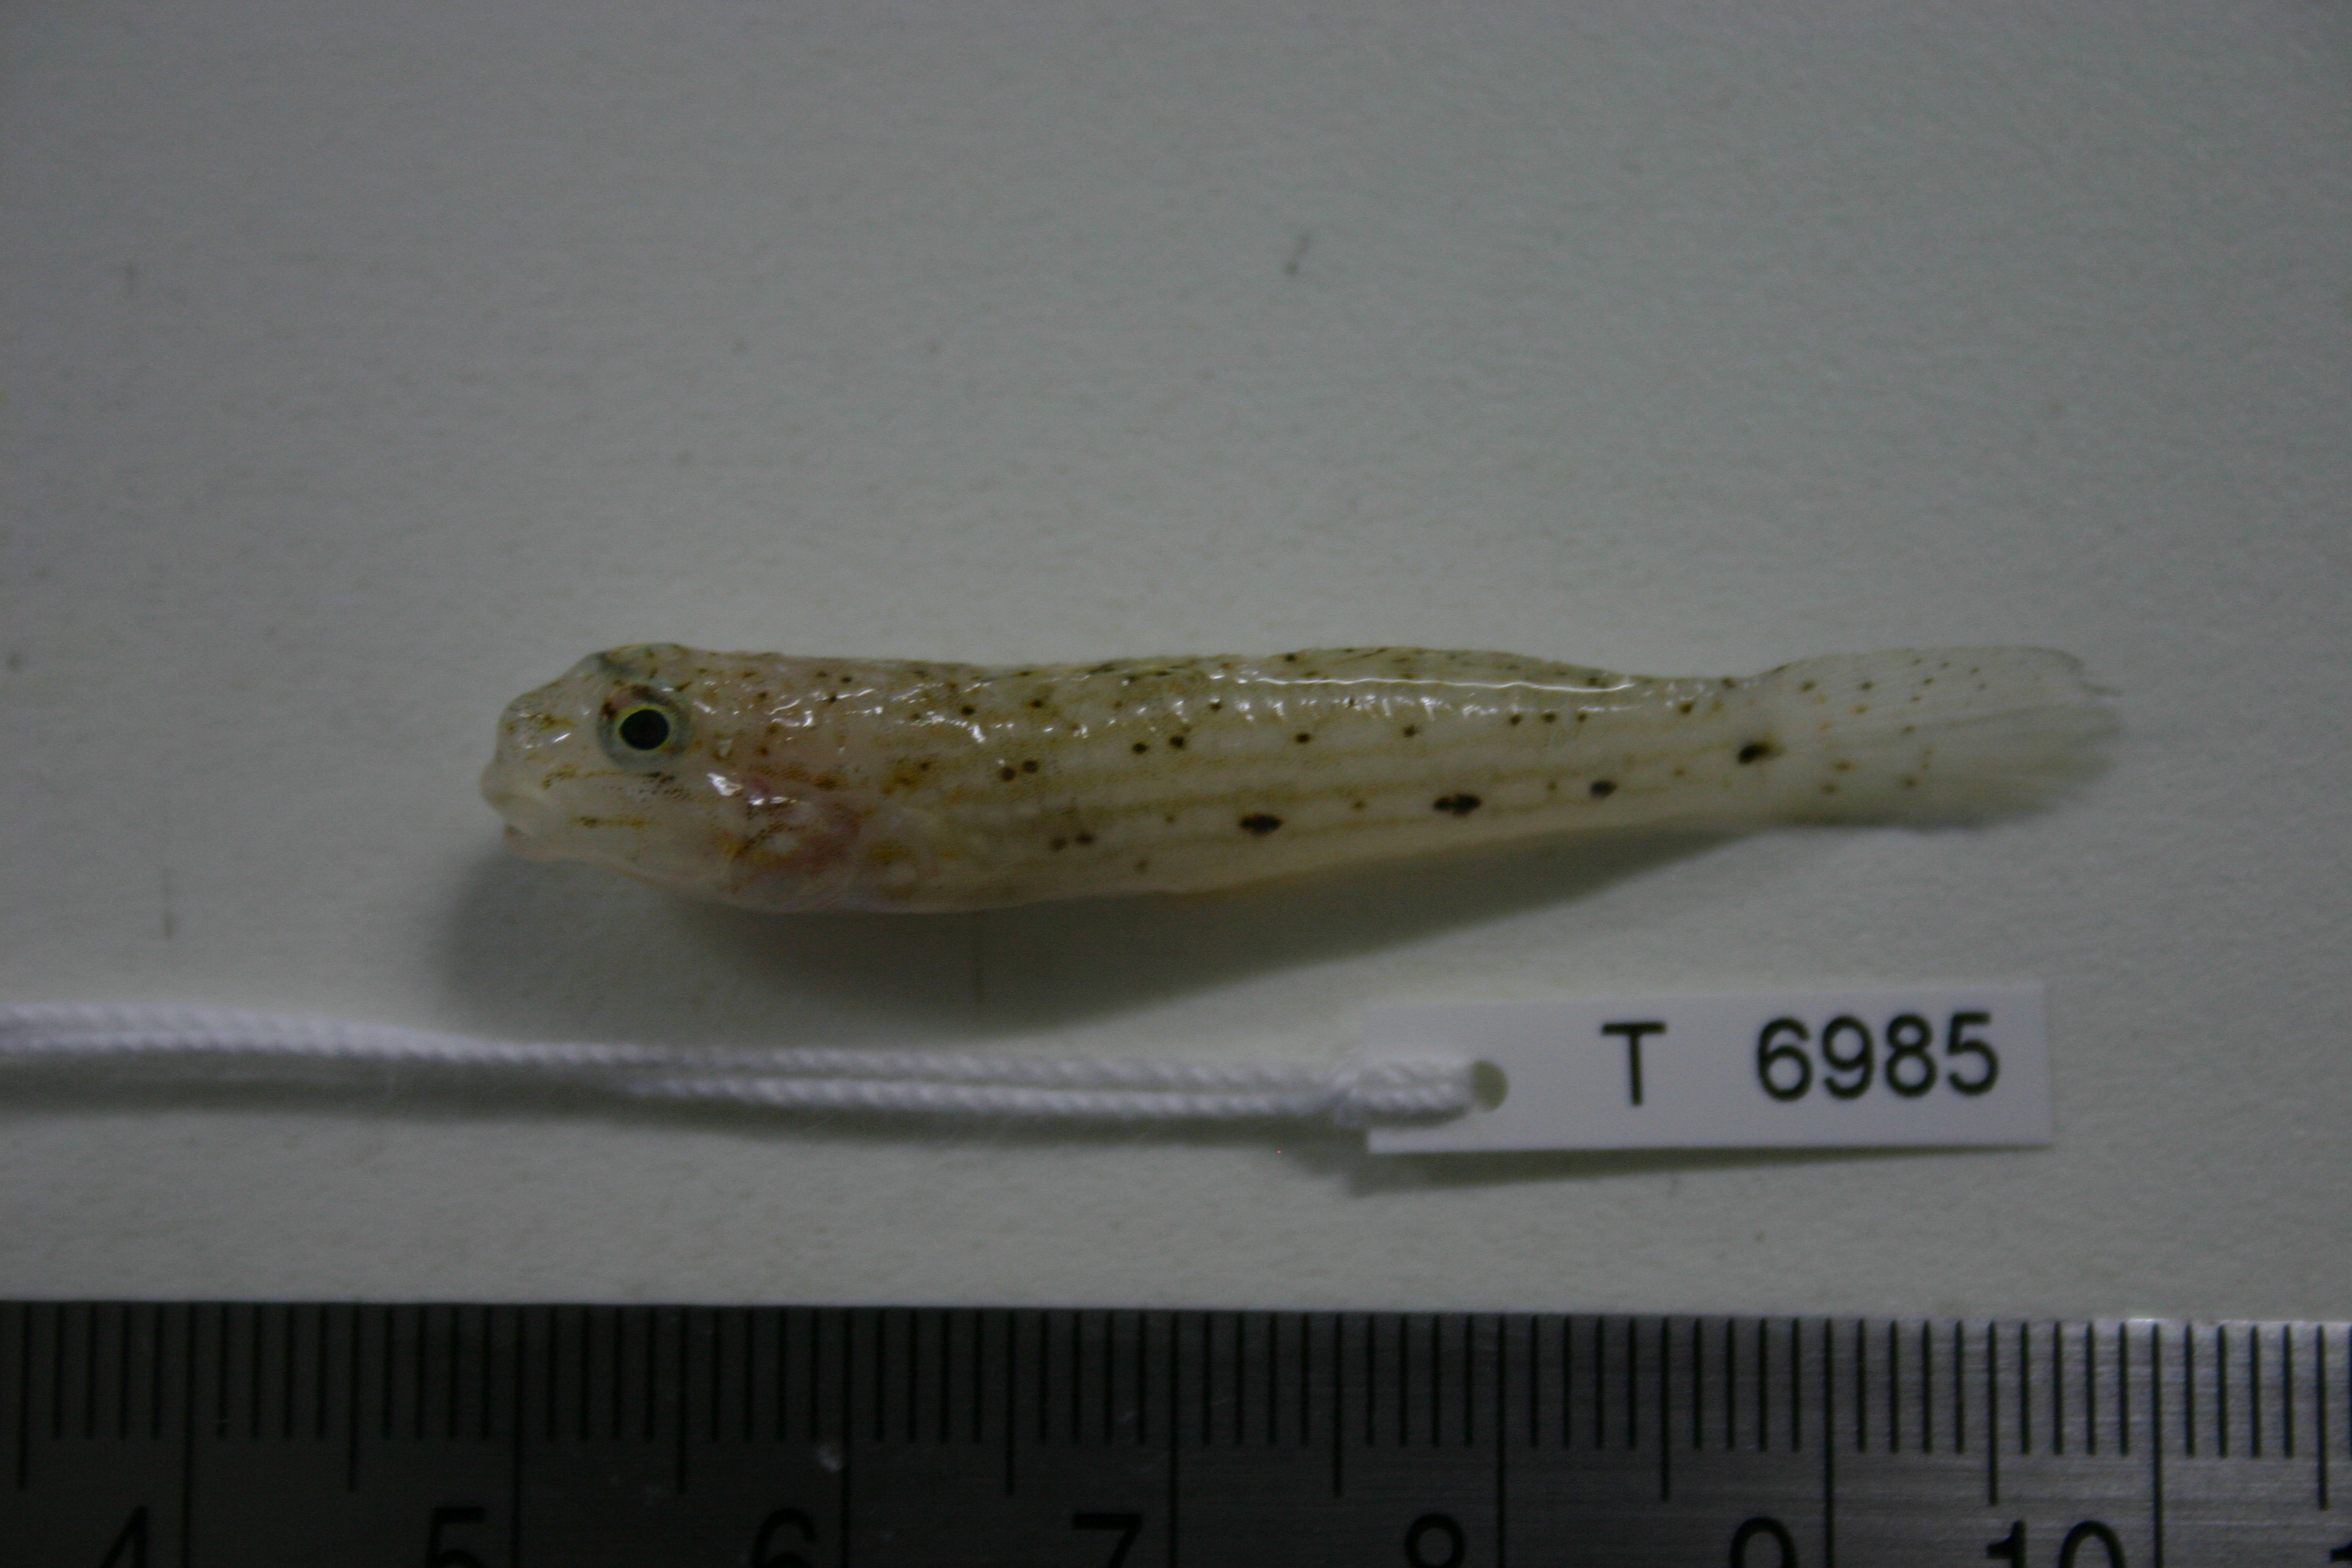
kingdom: Animalia
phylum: Chordata
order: Perciformes
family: Gobiidae
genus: Istigobius
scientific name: Istigobius decoratus
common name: Decorated goby
